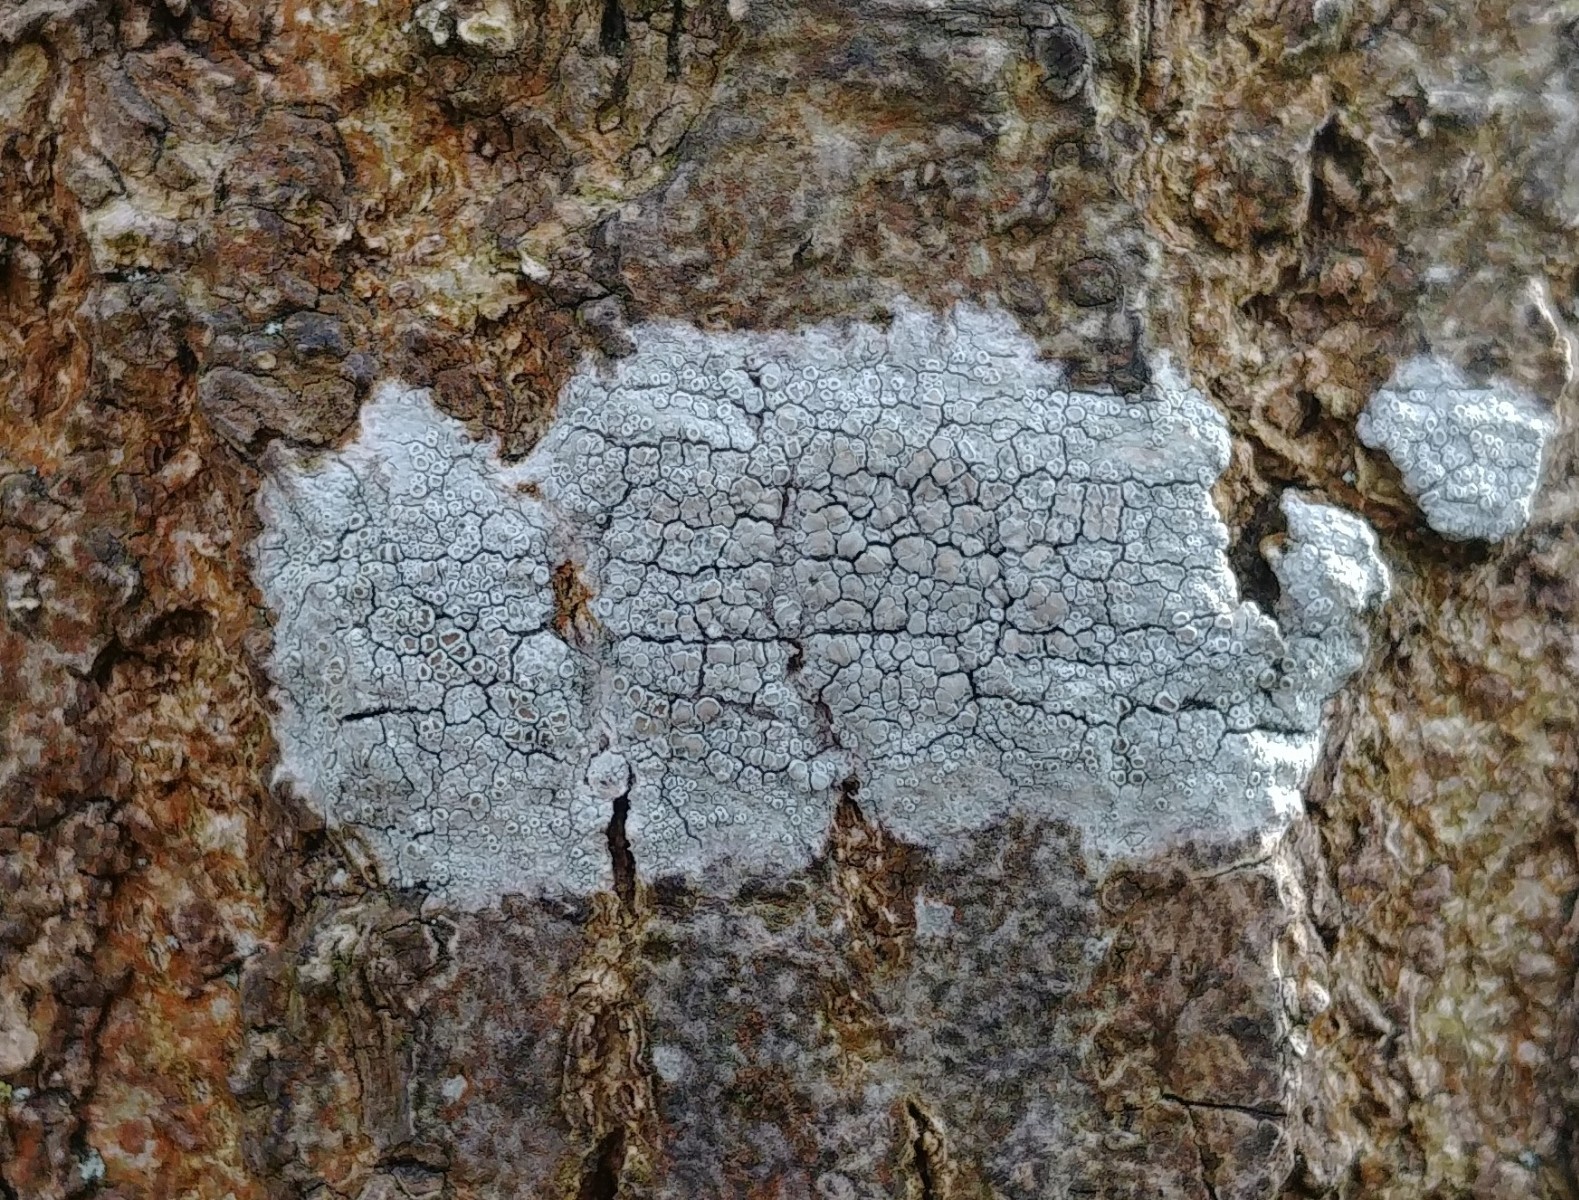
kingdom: Fungi
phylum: Ascomycota
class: Lecanoromycetes
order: Lecanorales
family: Lecanoraceae
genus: Lecanora
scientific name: Lecanora chlarotera
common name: brun kantskivelav
